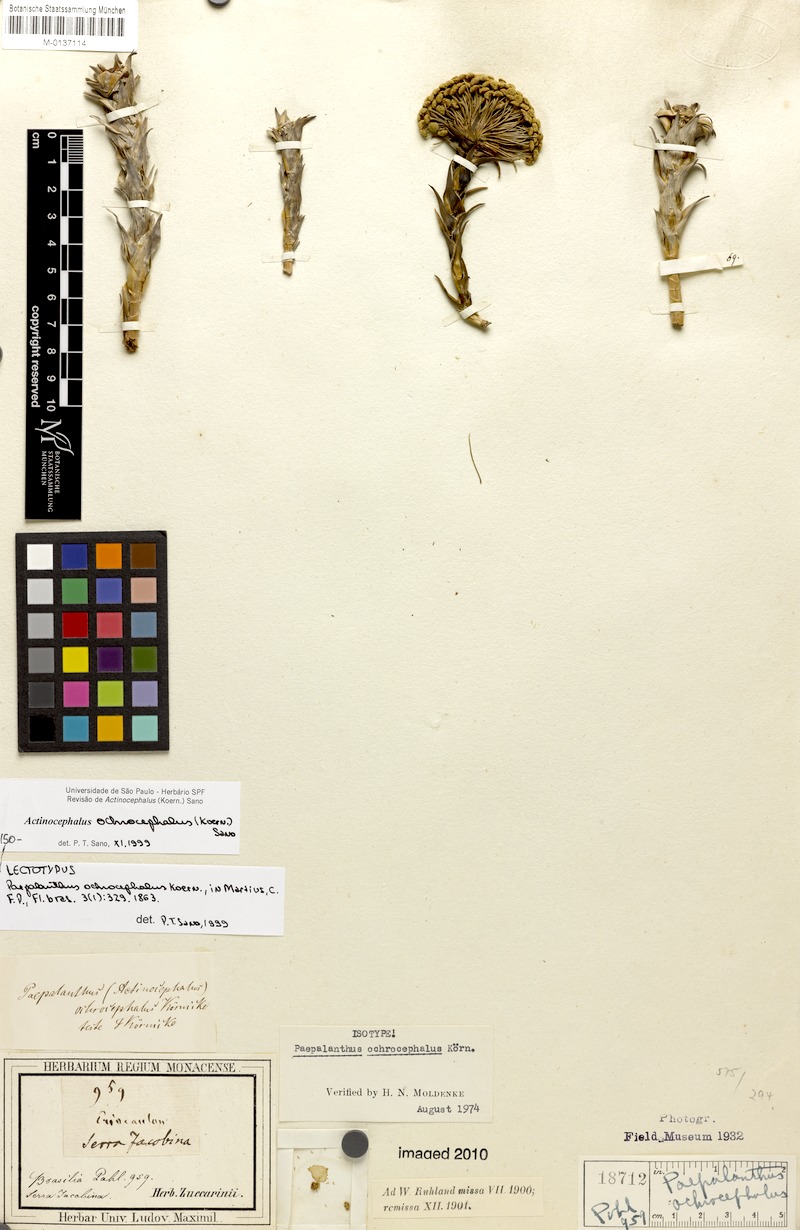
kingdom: Plantae
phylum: Tracheophyta
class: Liliopsida
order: Poales
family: Eriocaulaceae
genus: Paepalanthus
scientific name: Paepalanthus ochrocephalus
